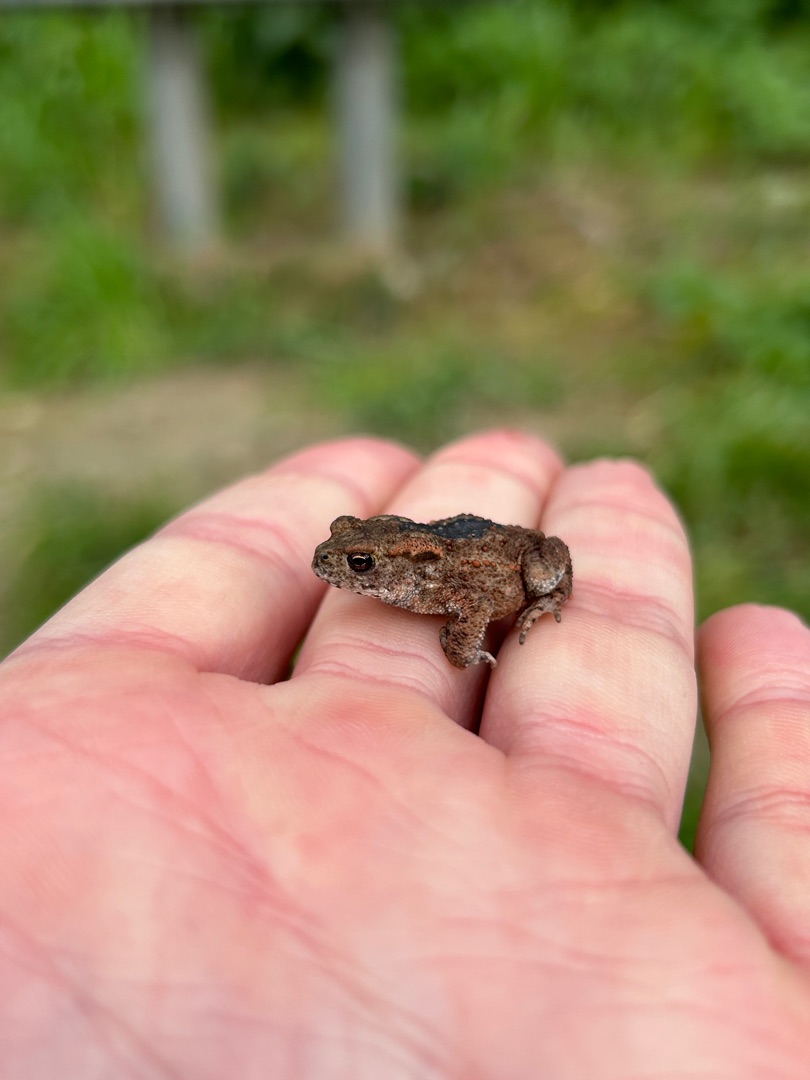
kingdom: Animalia
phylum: Chordata
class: Amphibia
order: Anura
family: Bufonidae
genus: Bufo
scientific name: Bufo bufo
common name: Skrubtudse
